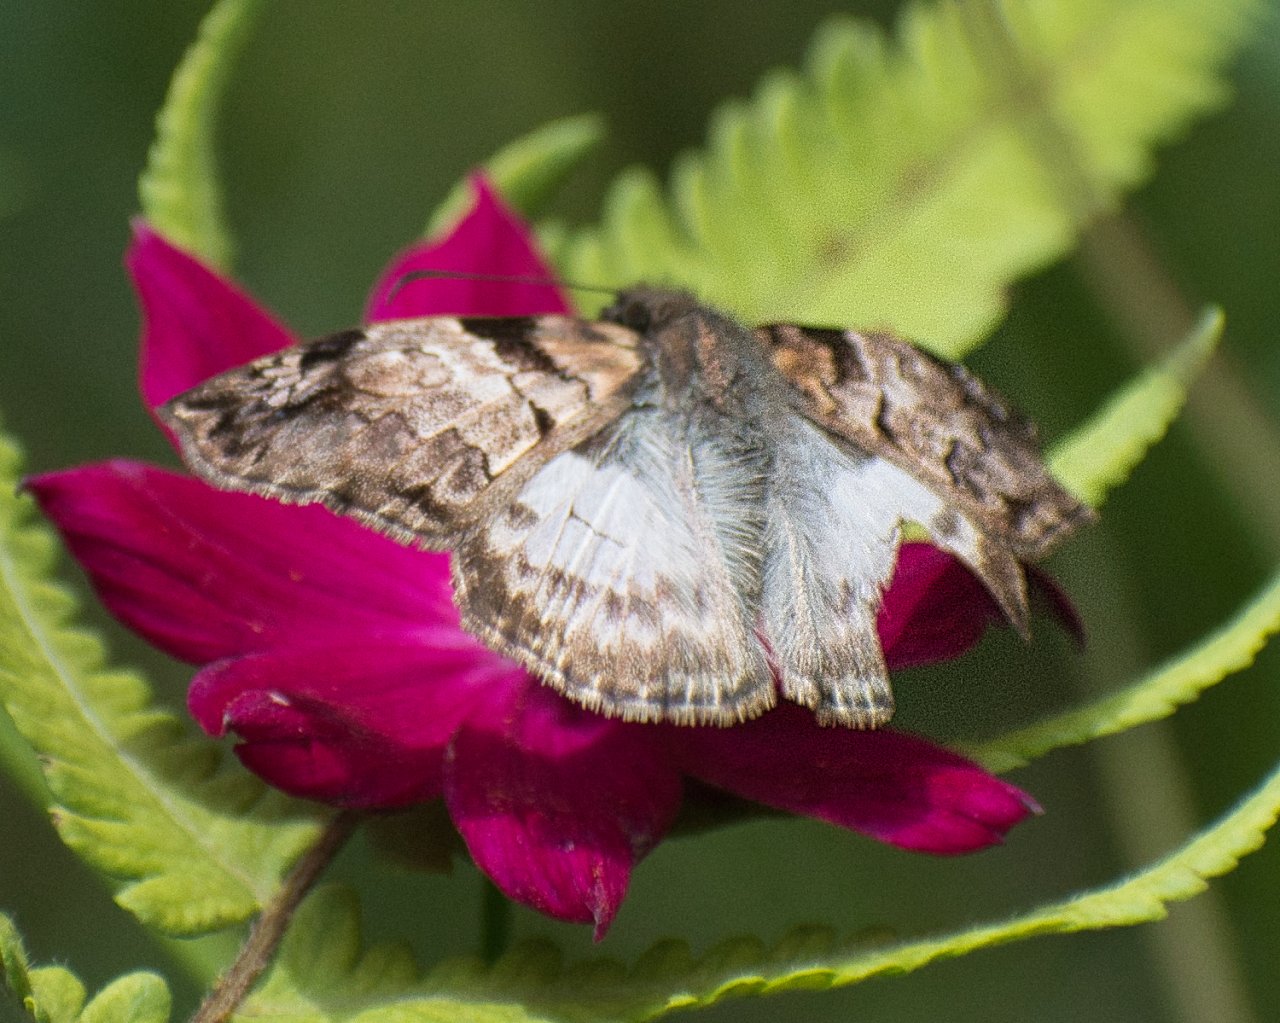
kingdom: Animalia
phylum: Arthropoda
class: Insecta
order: Lepidoptera
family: Hesperiidae
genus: Mylon
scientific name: Mylon lassia
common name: Bold Mylon
